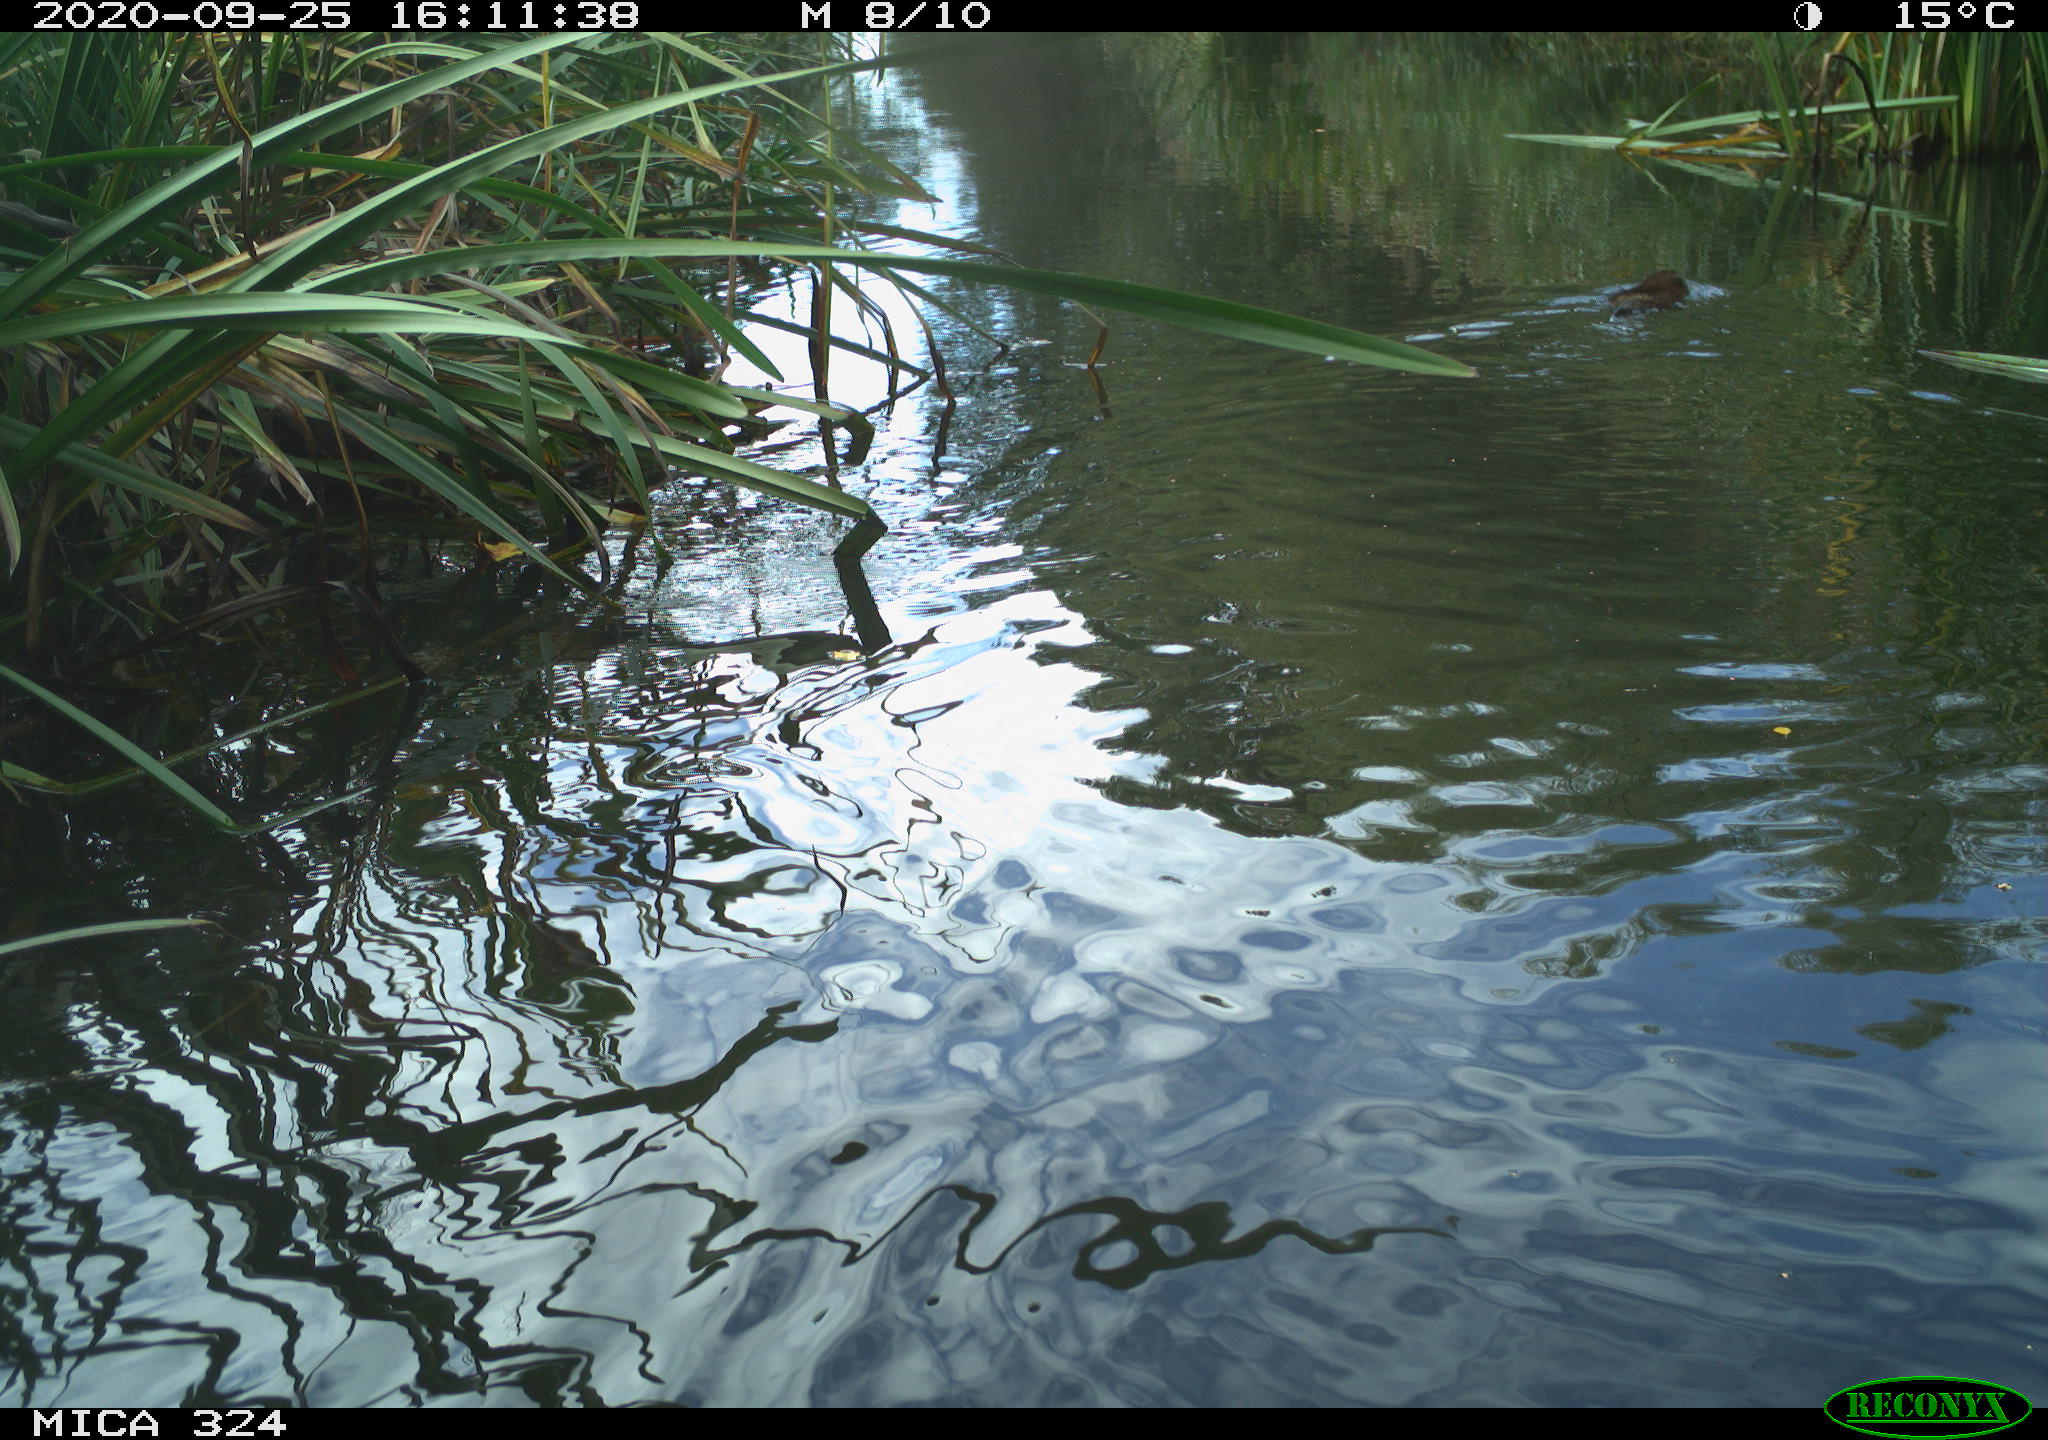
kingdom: Animalia
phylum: Chordata
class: Mammalia
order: Rodentia
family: Cricetidae
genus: Ondatra
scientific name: Ondatra zibethicus
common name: Muskrat
